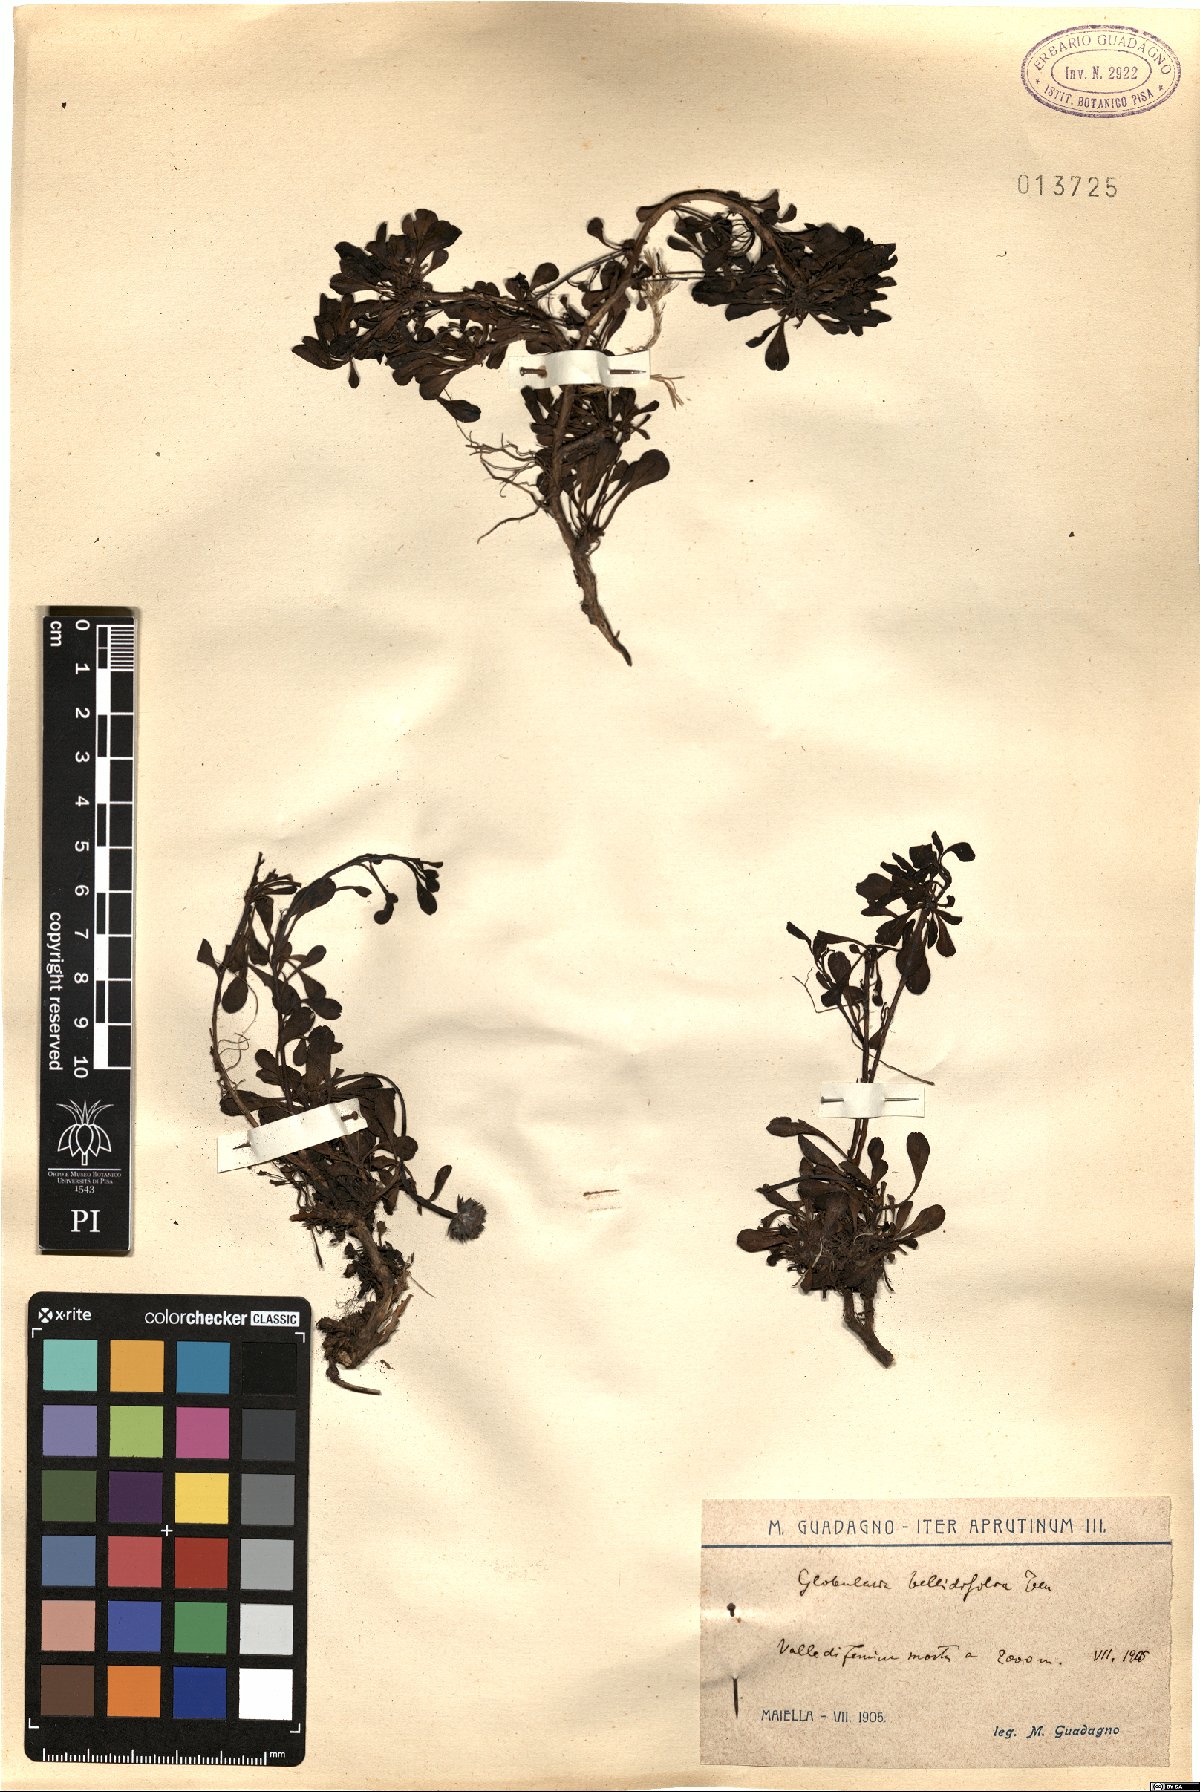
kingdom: Plantae
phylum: Tracheophyta
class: Magnoliopsida
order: Lamiales
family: Plantaginaceae
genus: Globularia
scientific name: Globularia meridionalis
